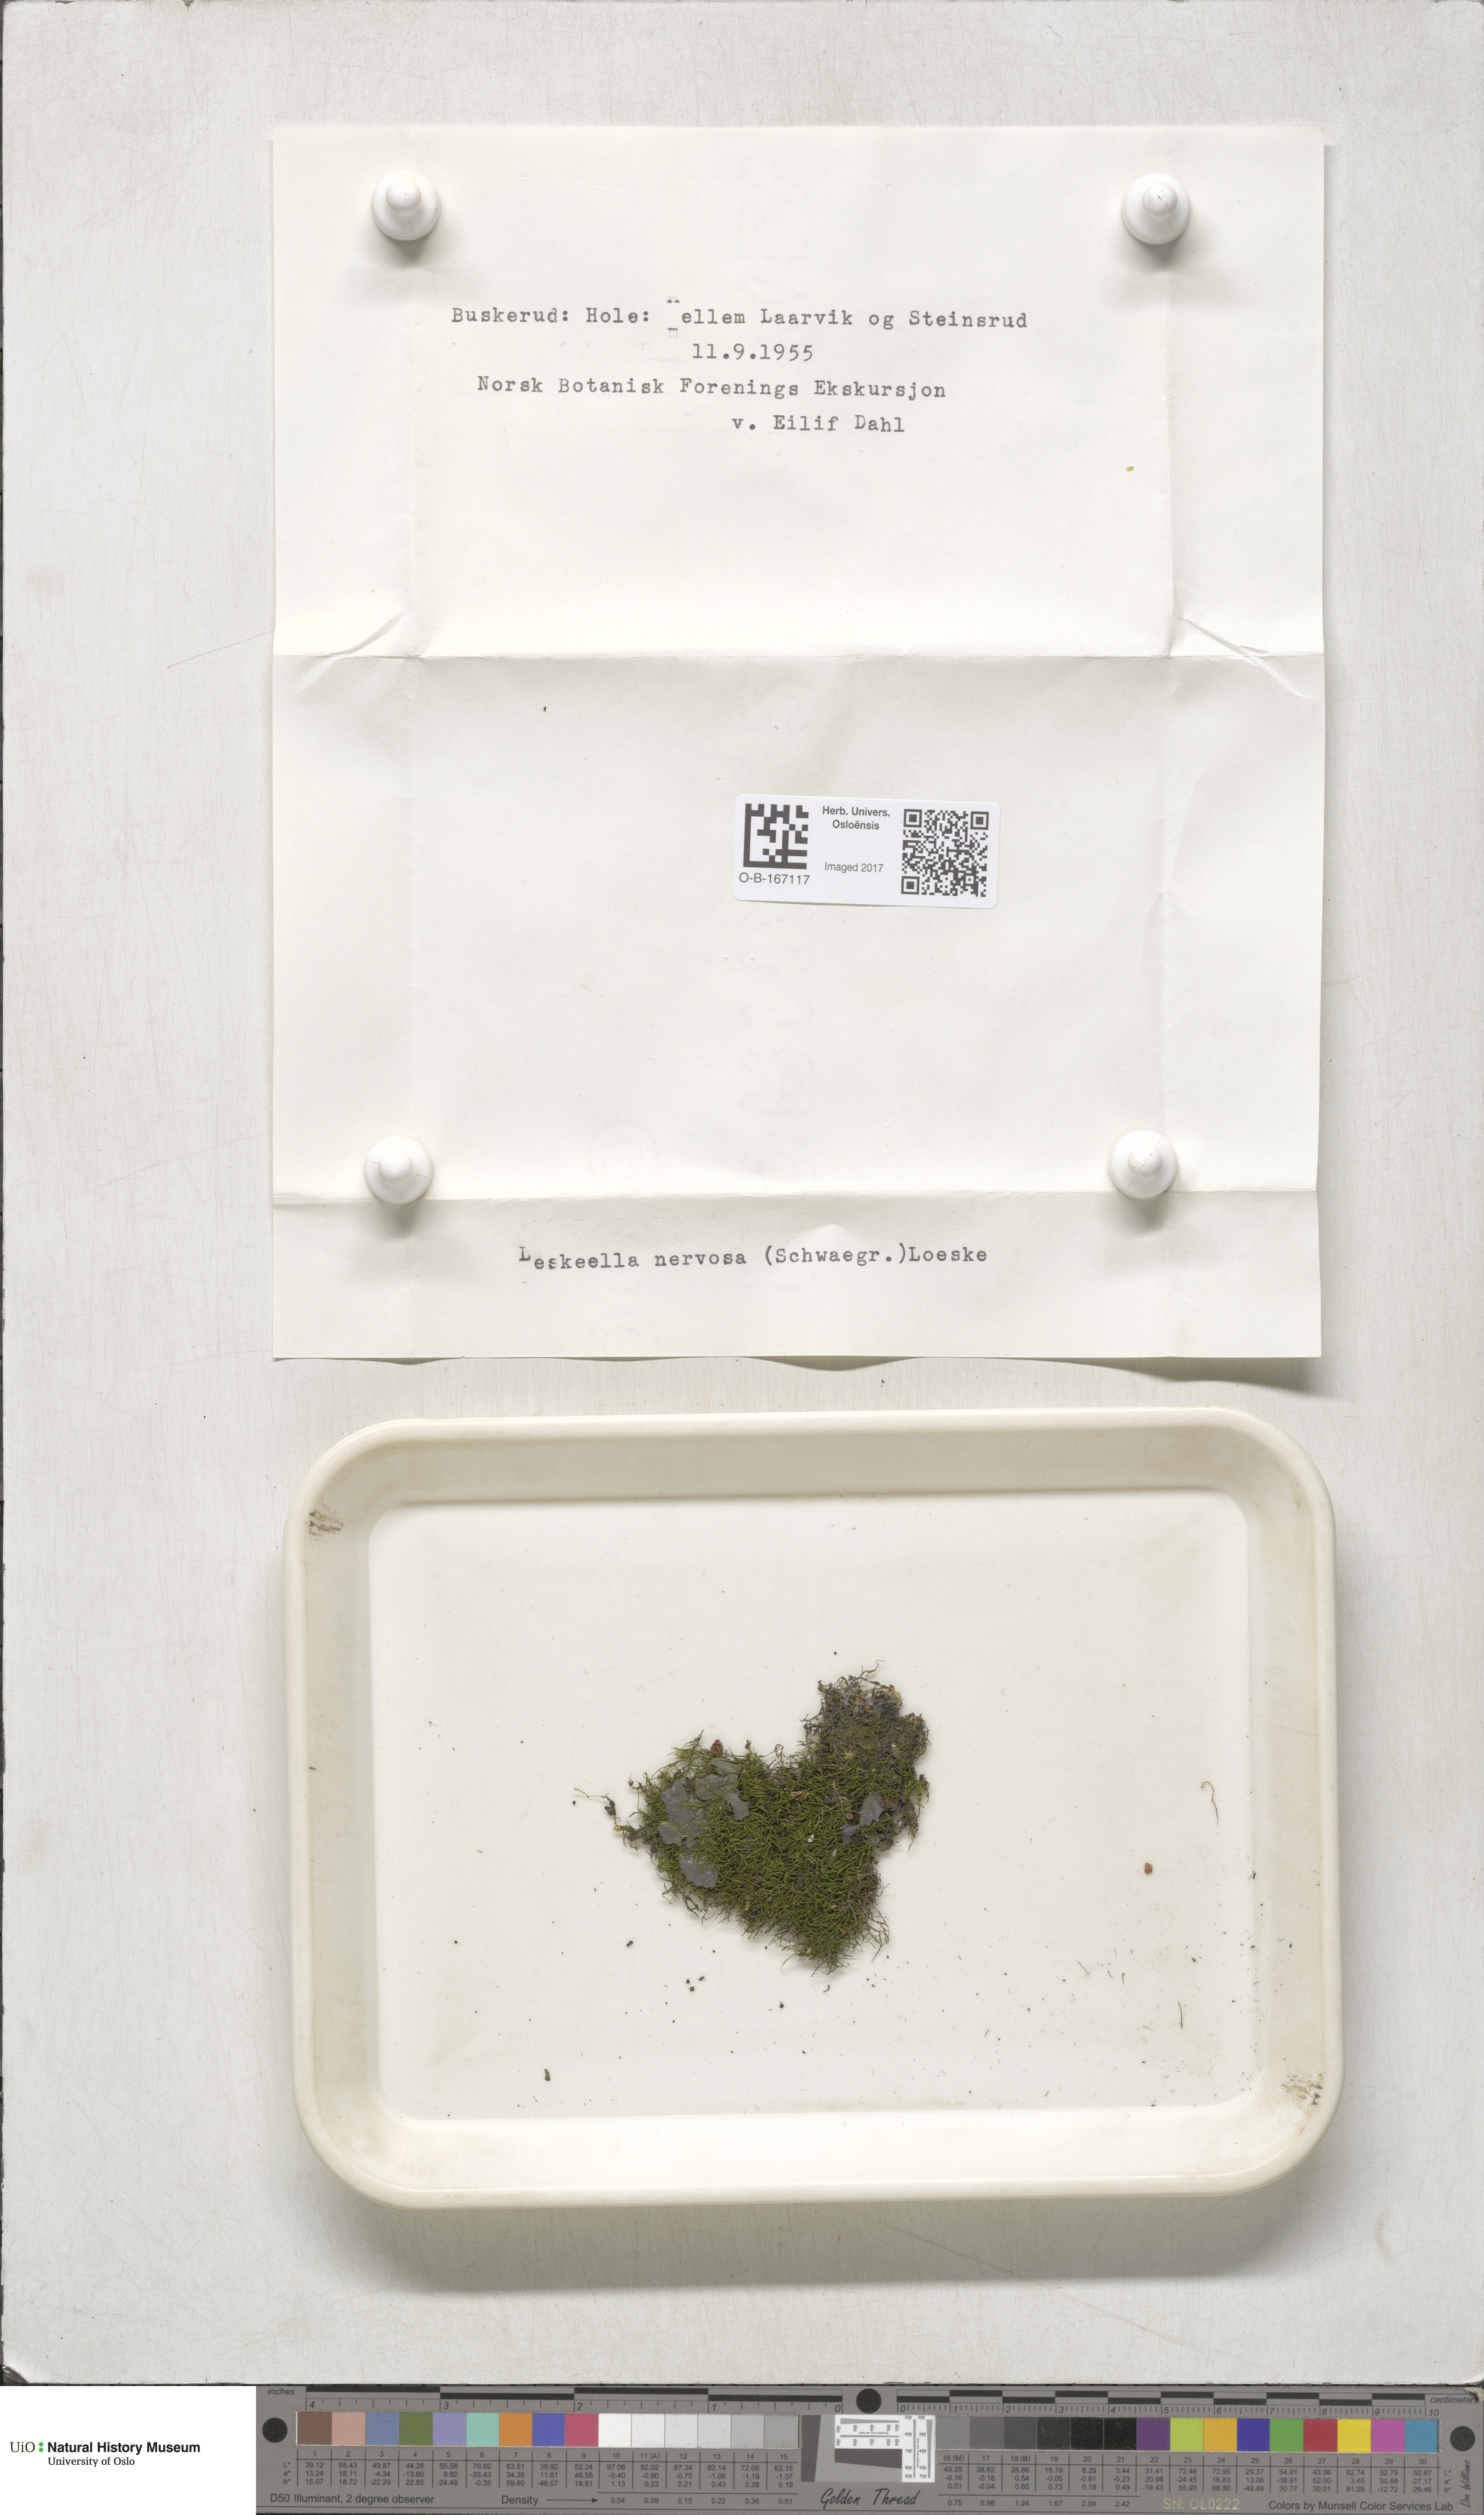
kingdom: Plantae
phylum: Bryophyta
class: Bryopsida
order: Hypnales
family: Pseudoleskeellaceae
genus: Pseudoleskeella
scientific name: Pseudoleskeella nervosa
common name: Nerved leske's moss
